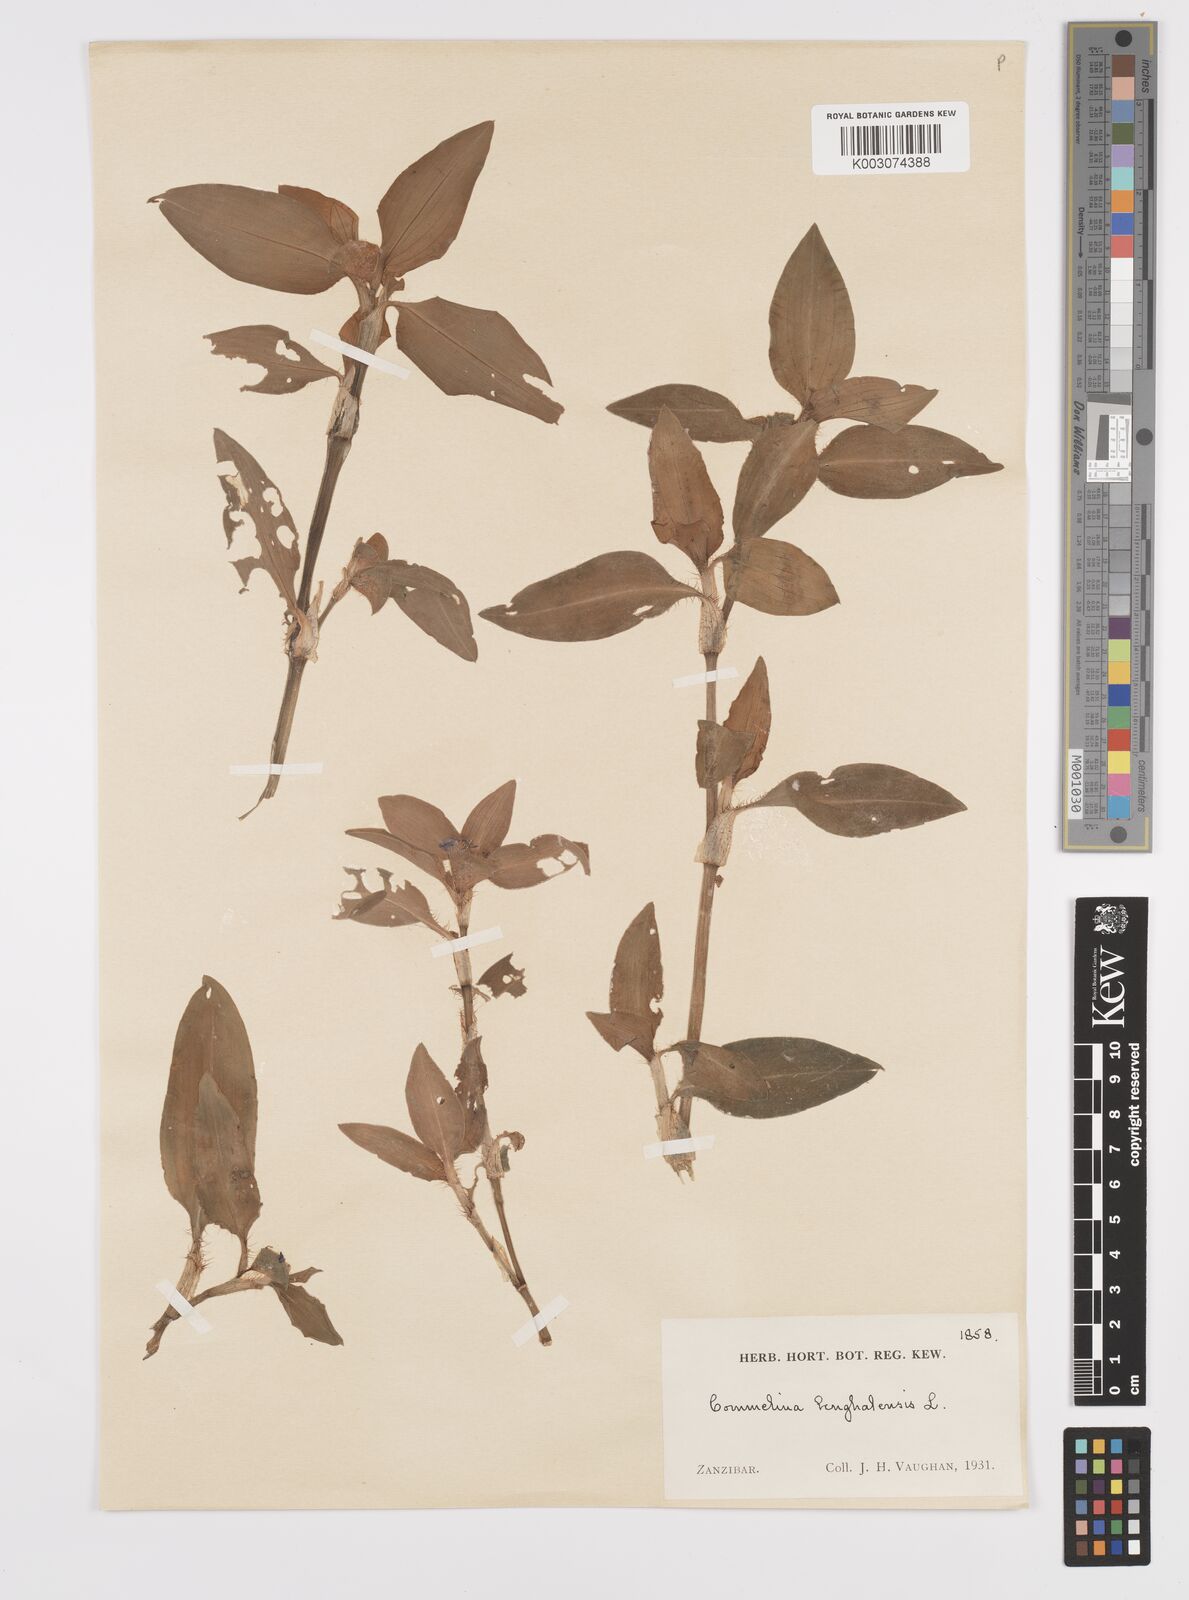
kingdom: Plantae
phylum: Tracheophyta
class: Liliopsida
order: Commelinales
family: Commelinaceae
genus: Commelina
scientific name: Commelina benghalensis
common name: Jio
